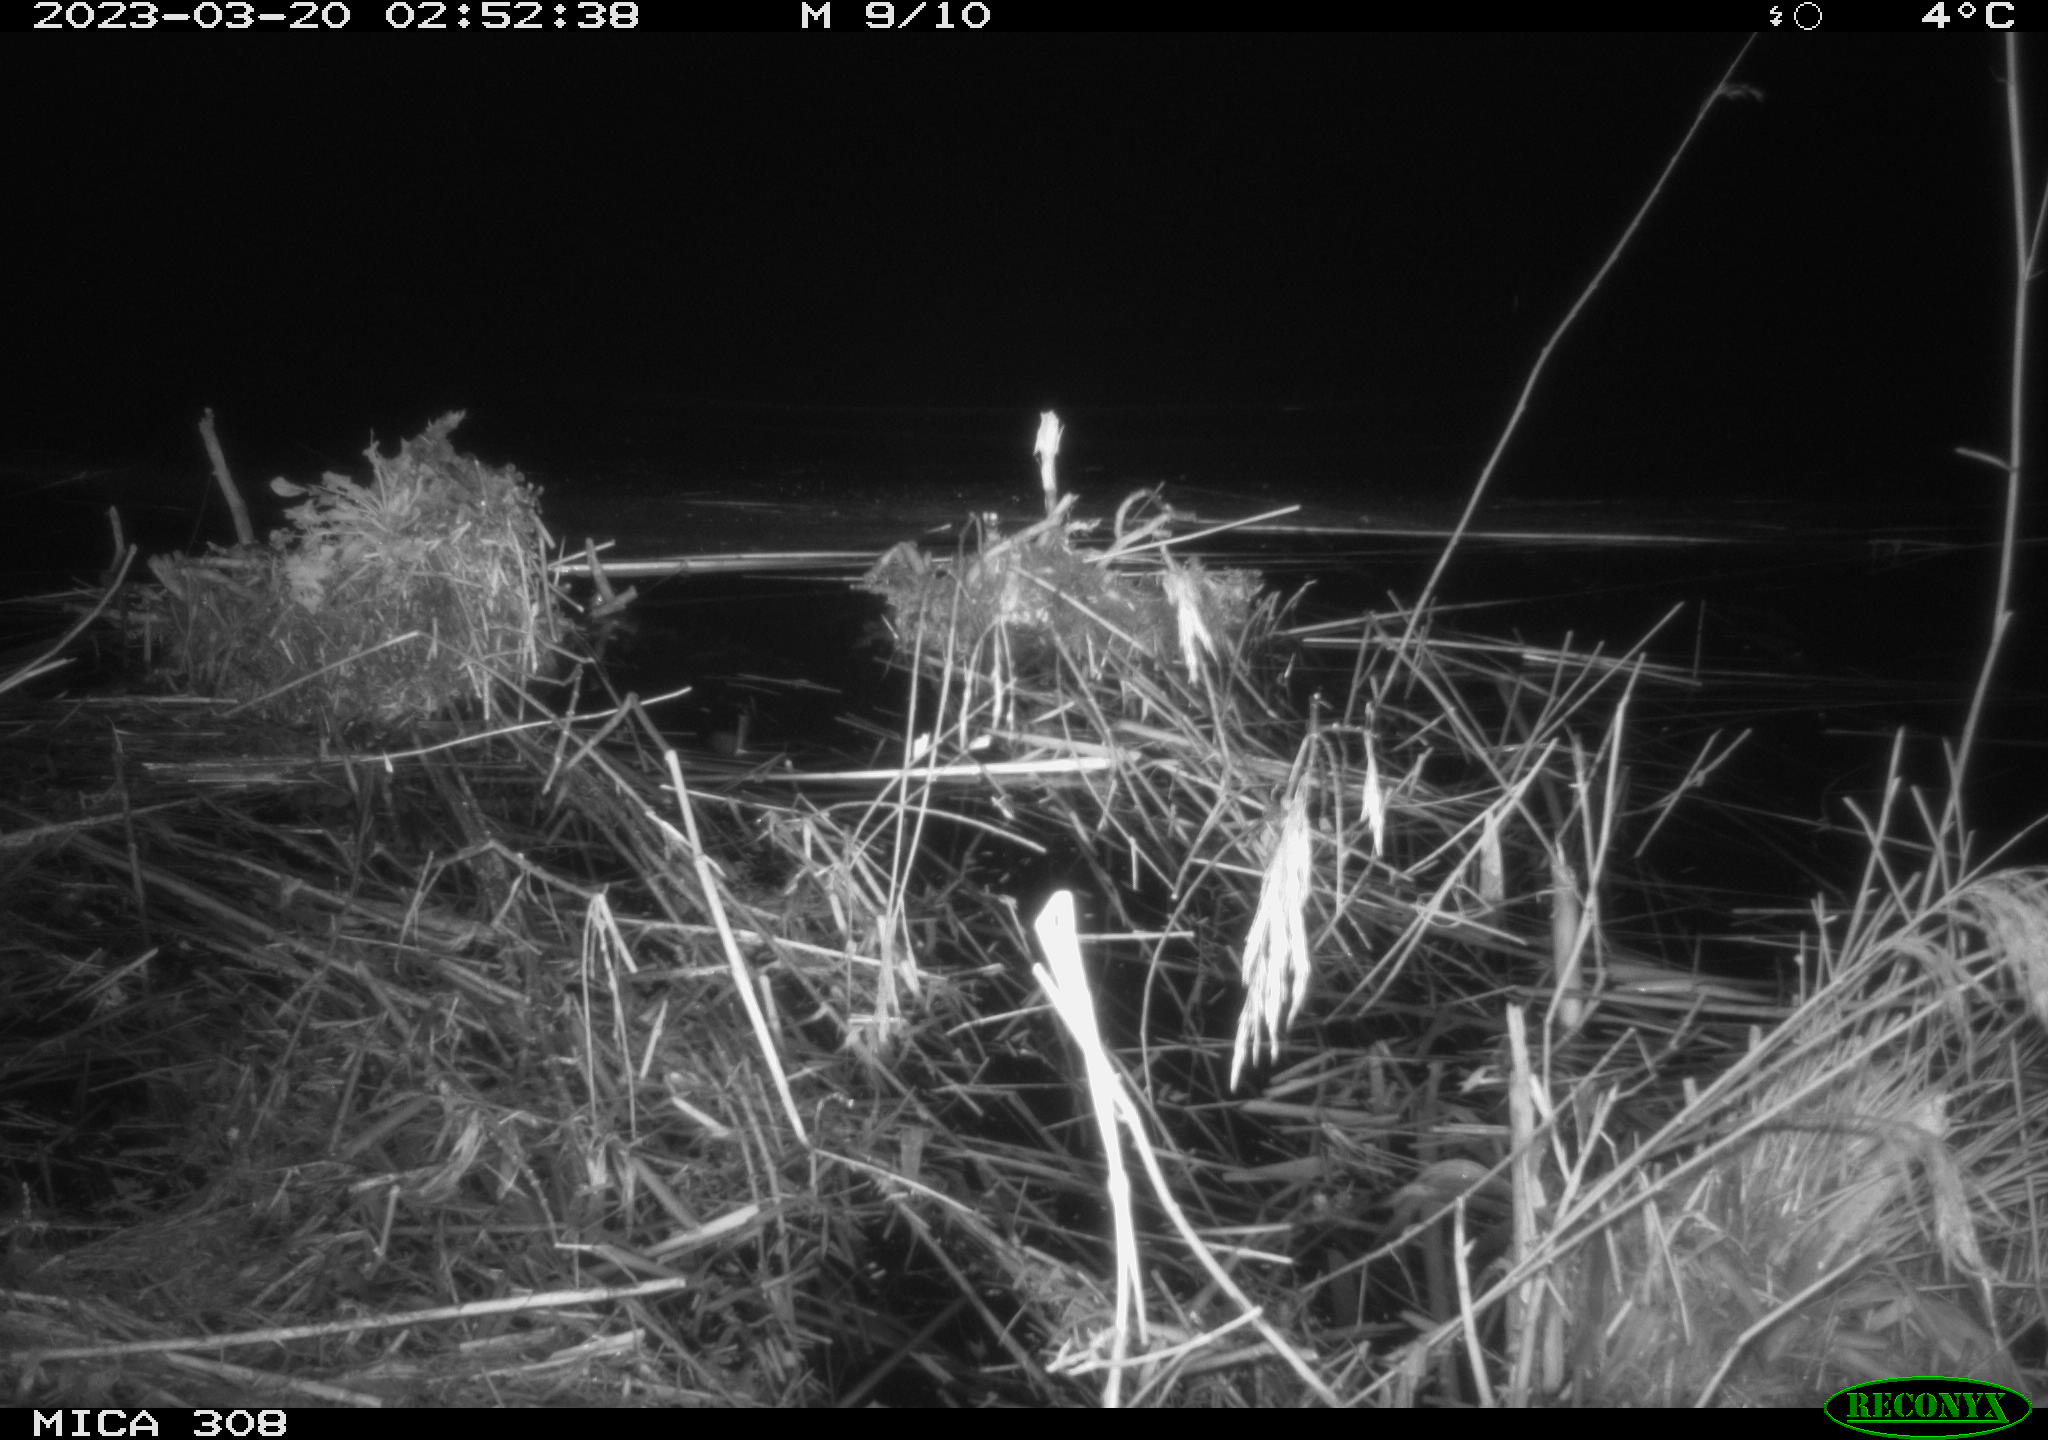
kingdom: Animalia
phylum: Chordata
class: Mammalia
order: Rodentia
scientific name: Rodentia
